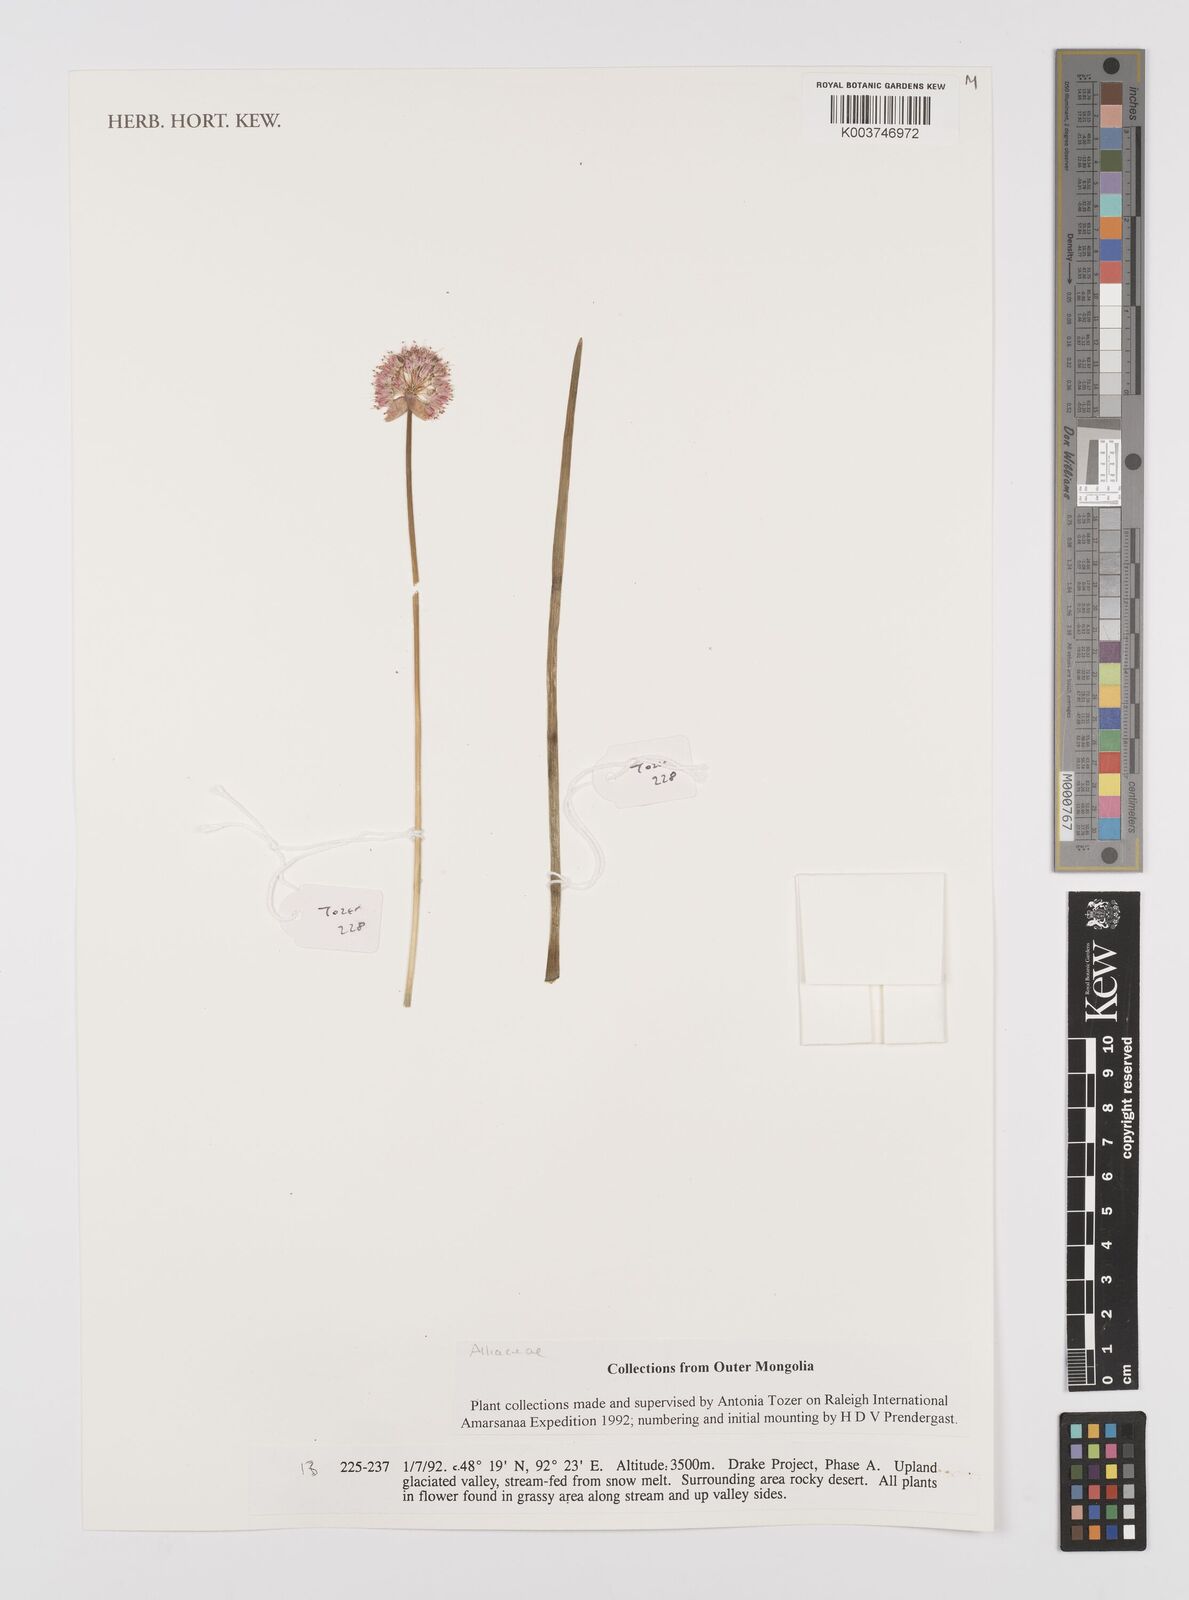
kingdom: Plantae
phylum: Tracheophyta
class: Liliopsida
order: Asparagales
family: Amaryllidaceae
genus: Allium
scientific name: Allium
